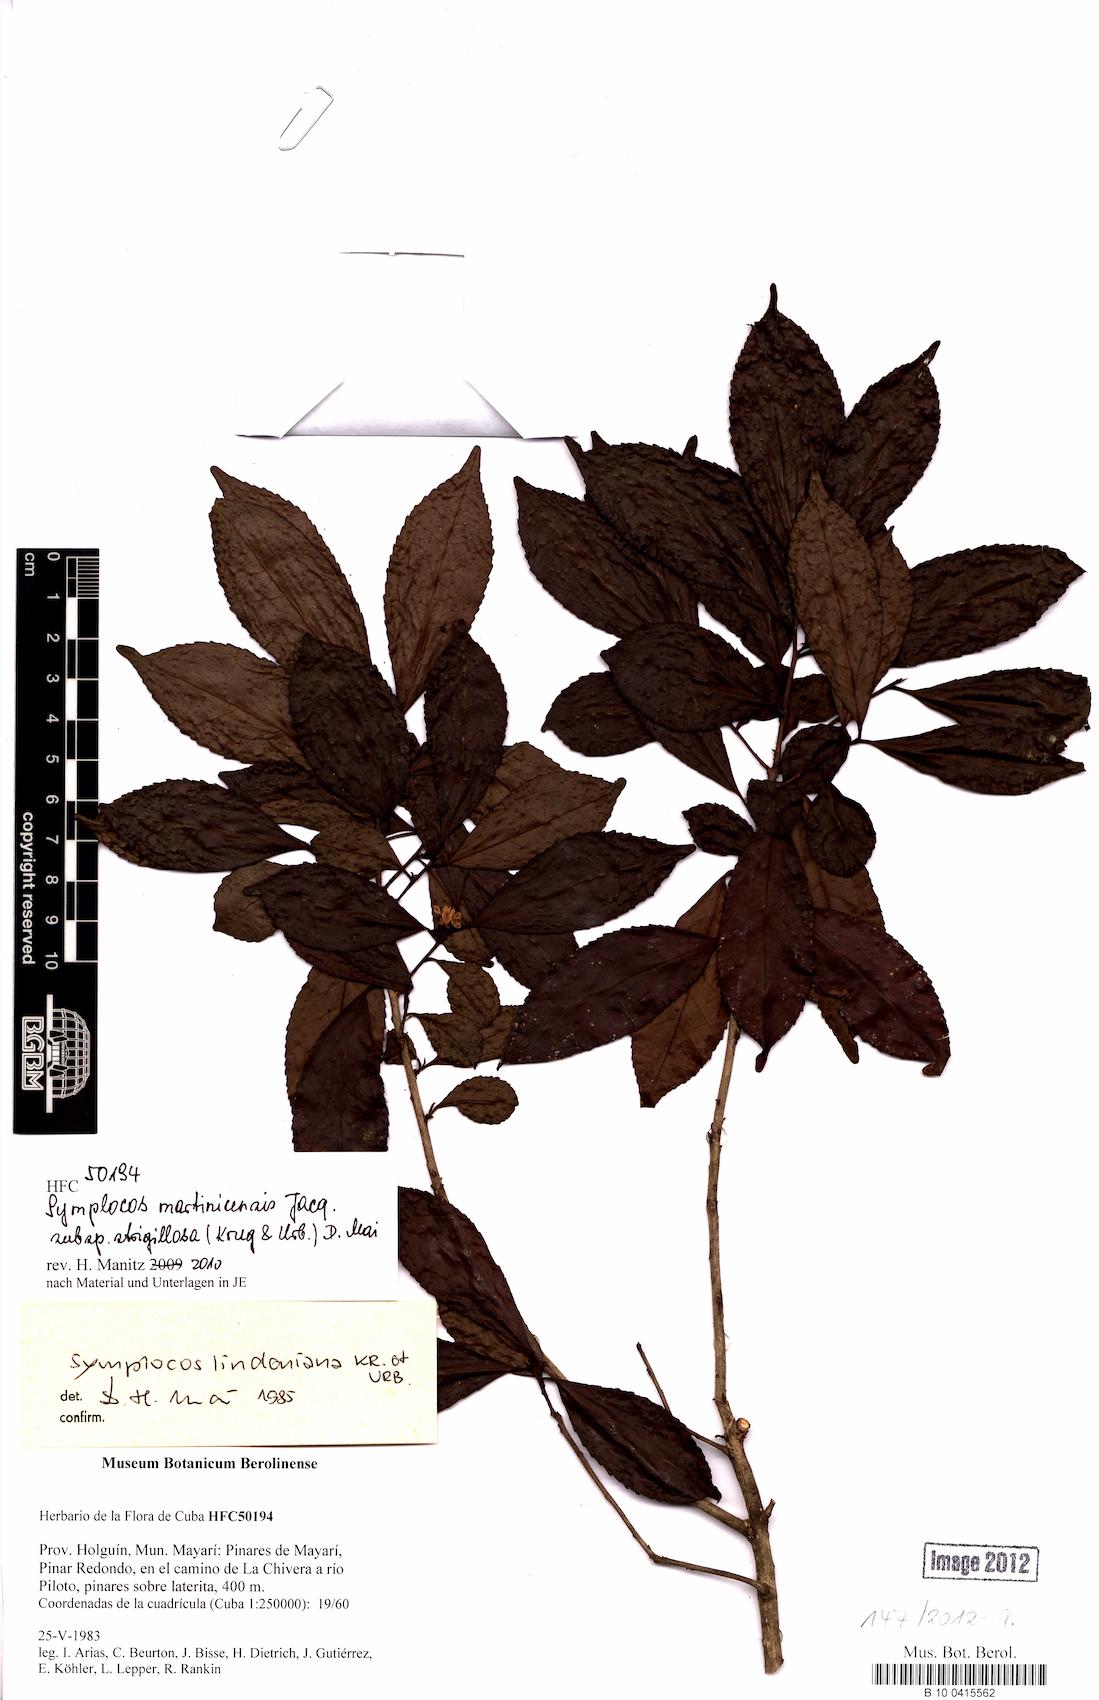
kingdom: Plantae
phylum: Tracheophyta
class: Magnoliopsida
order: Ericales
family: Symplocaceae
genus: Symplocos
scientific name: Symplocos jurgensenii
